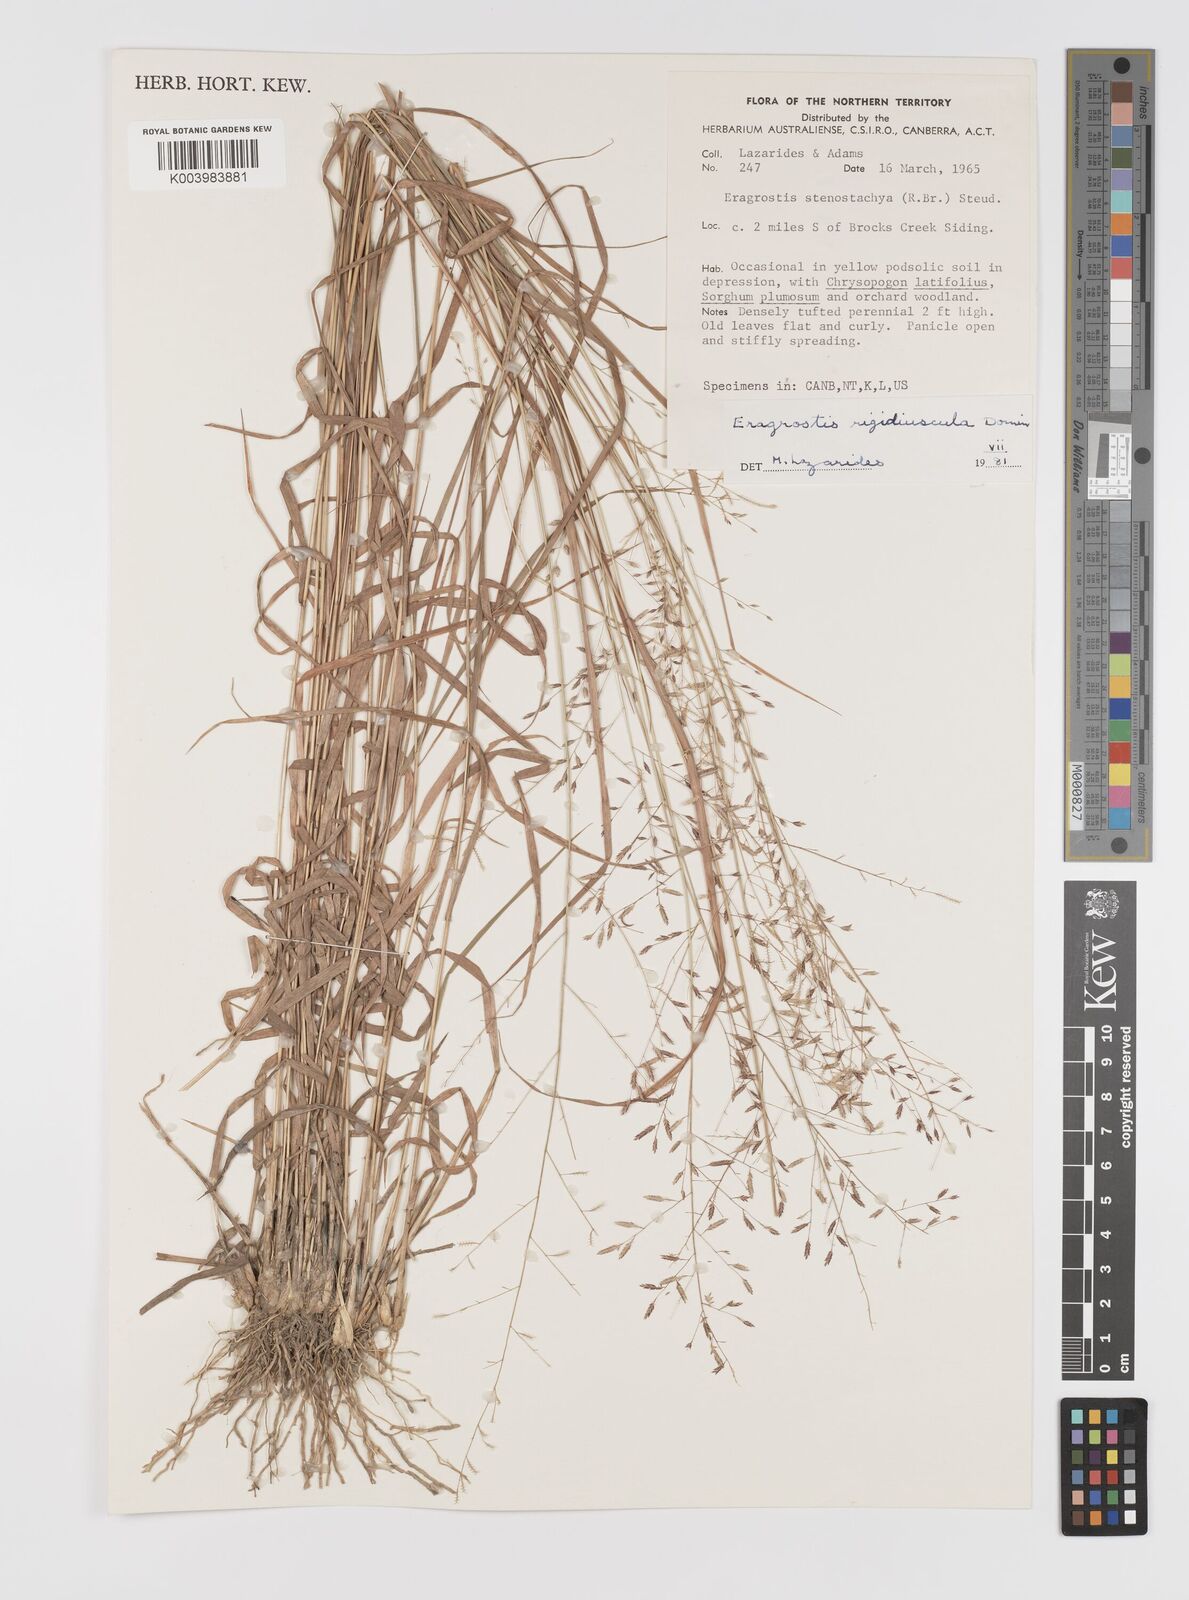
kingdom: Plantae
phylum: Tracheophyta
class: Liliopsida
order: Poales
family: Poaceae
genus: Eragrostis
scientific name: Eragrostis rigidiuscula
